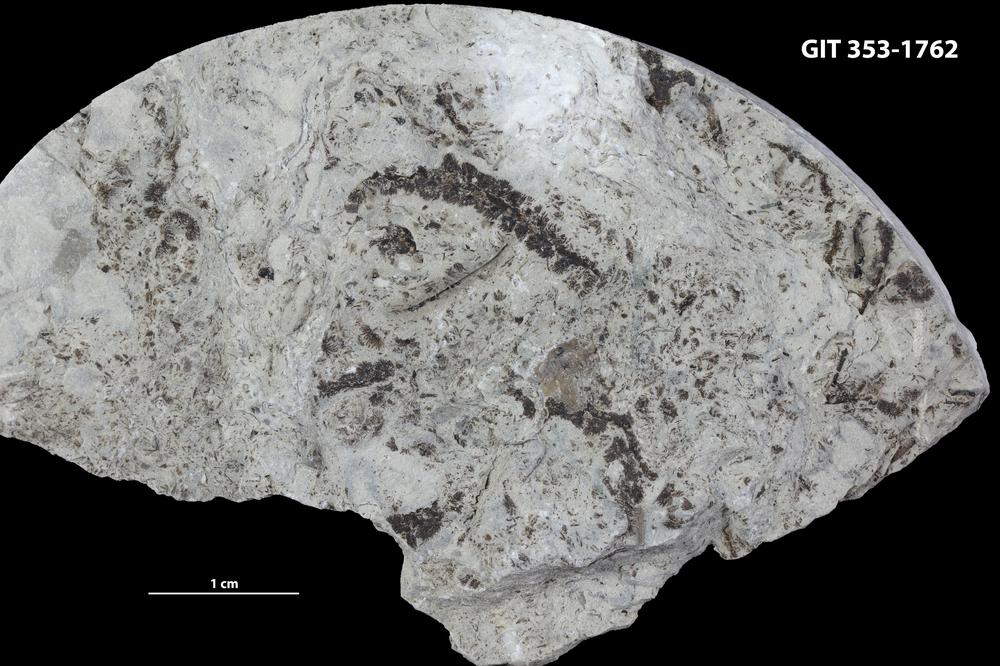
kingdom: Plantae
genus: Leveilleites
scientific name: Leveilleites hartnageli
